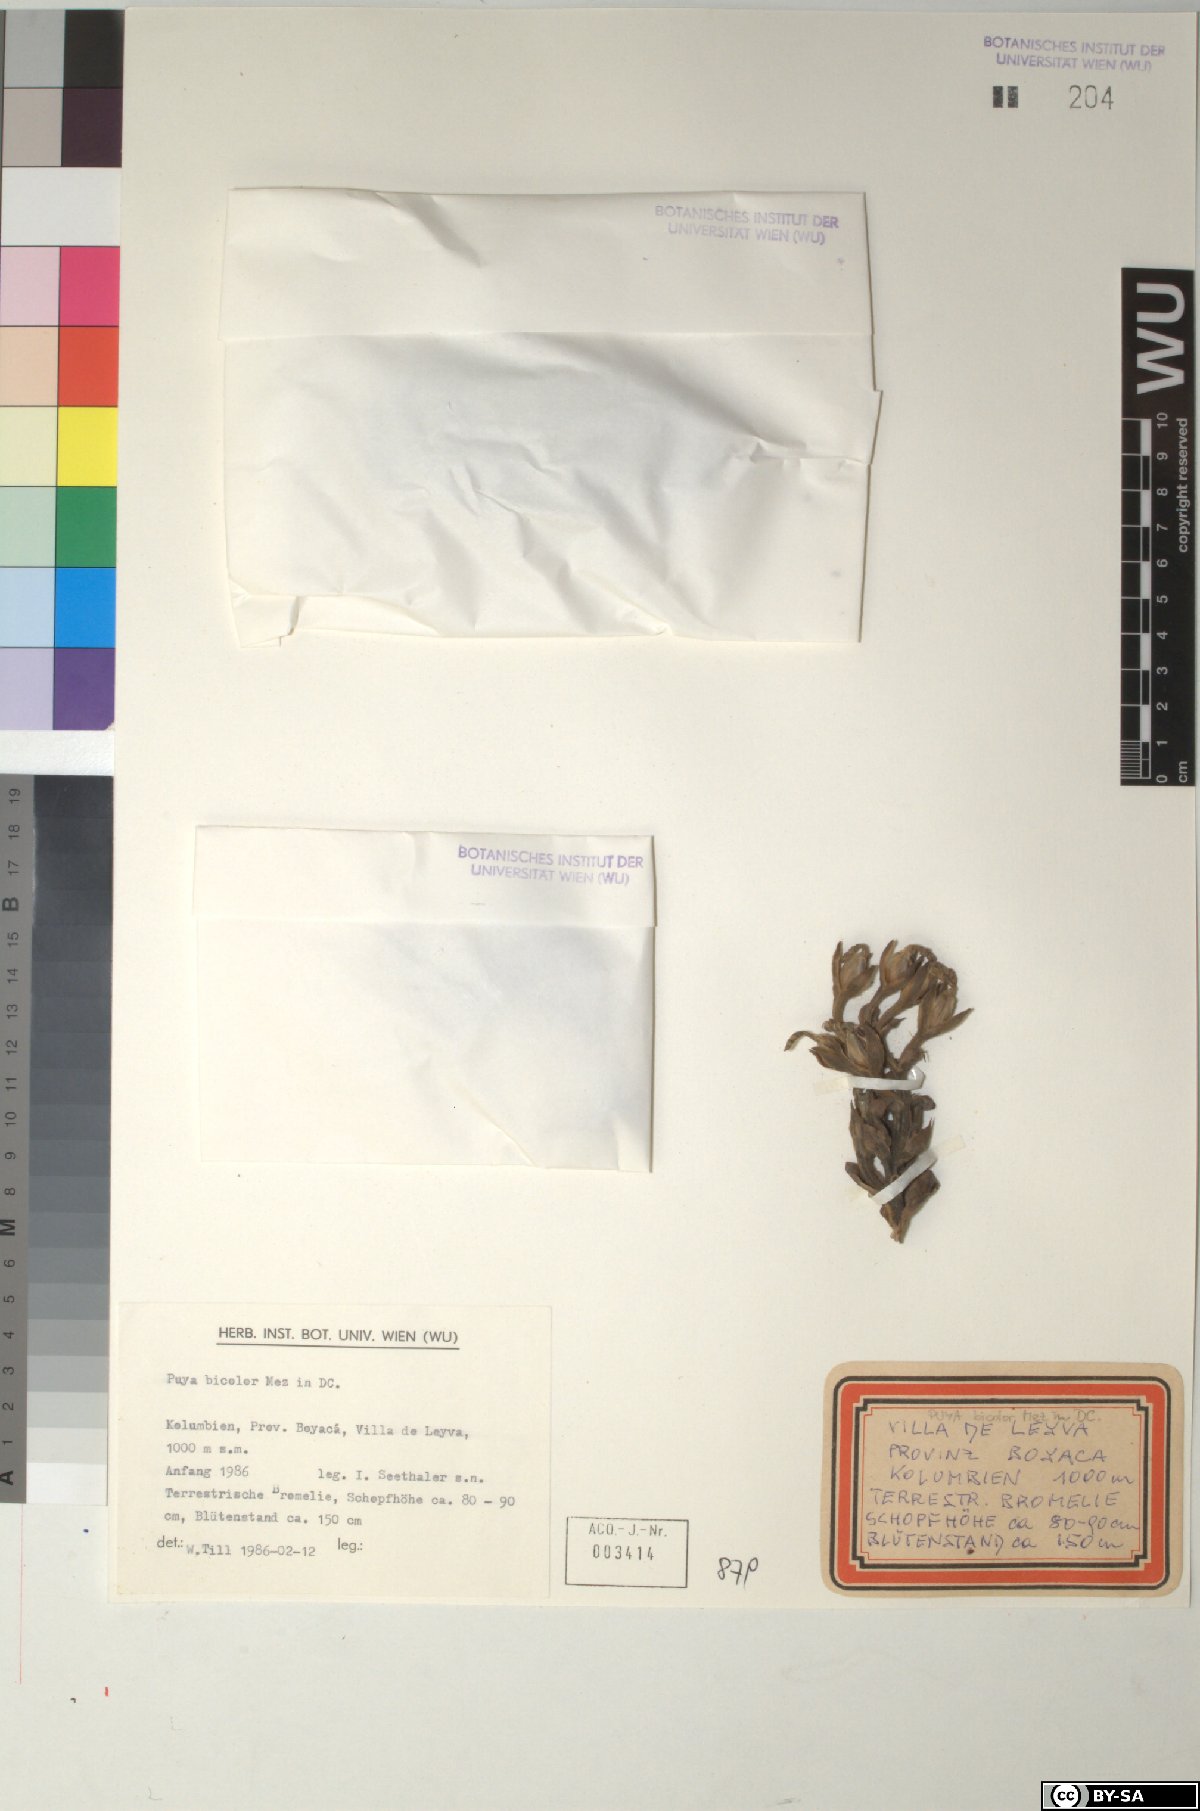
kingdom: Plantae
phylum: Tracheophyta
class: Liliopsida
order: Poales
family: Bromeliaceae
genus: Puya
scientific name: Puya bicolor
